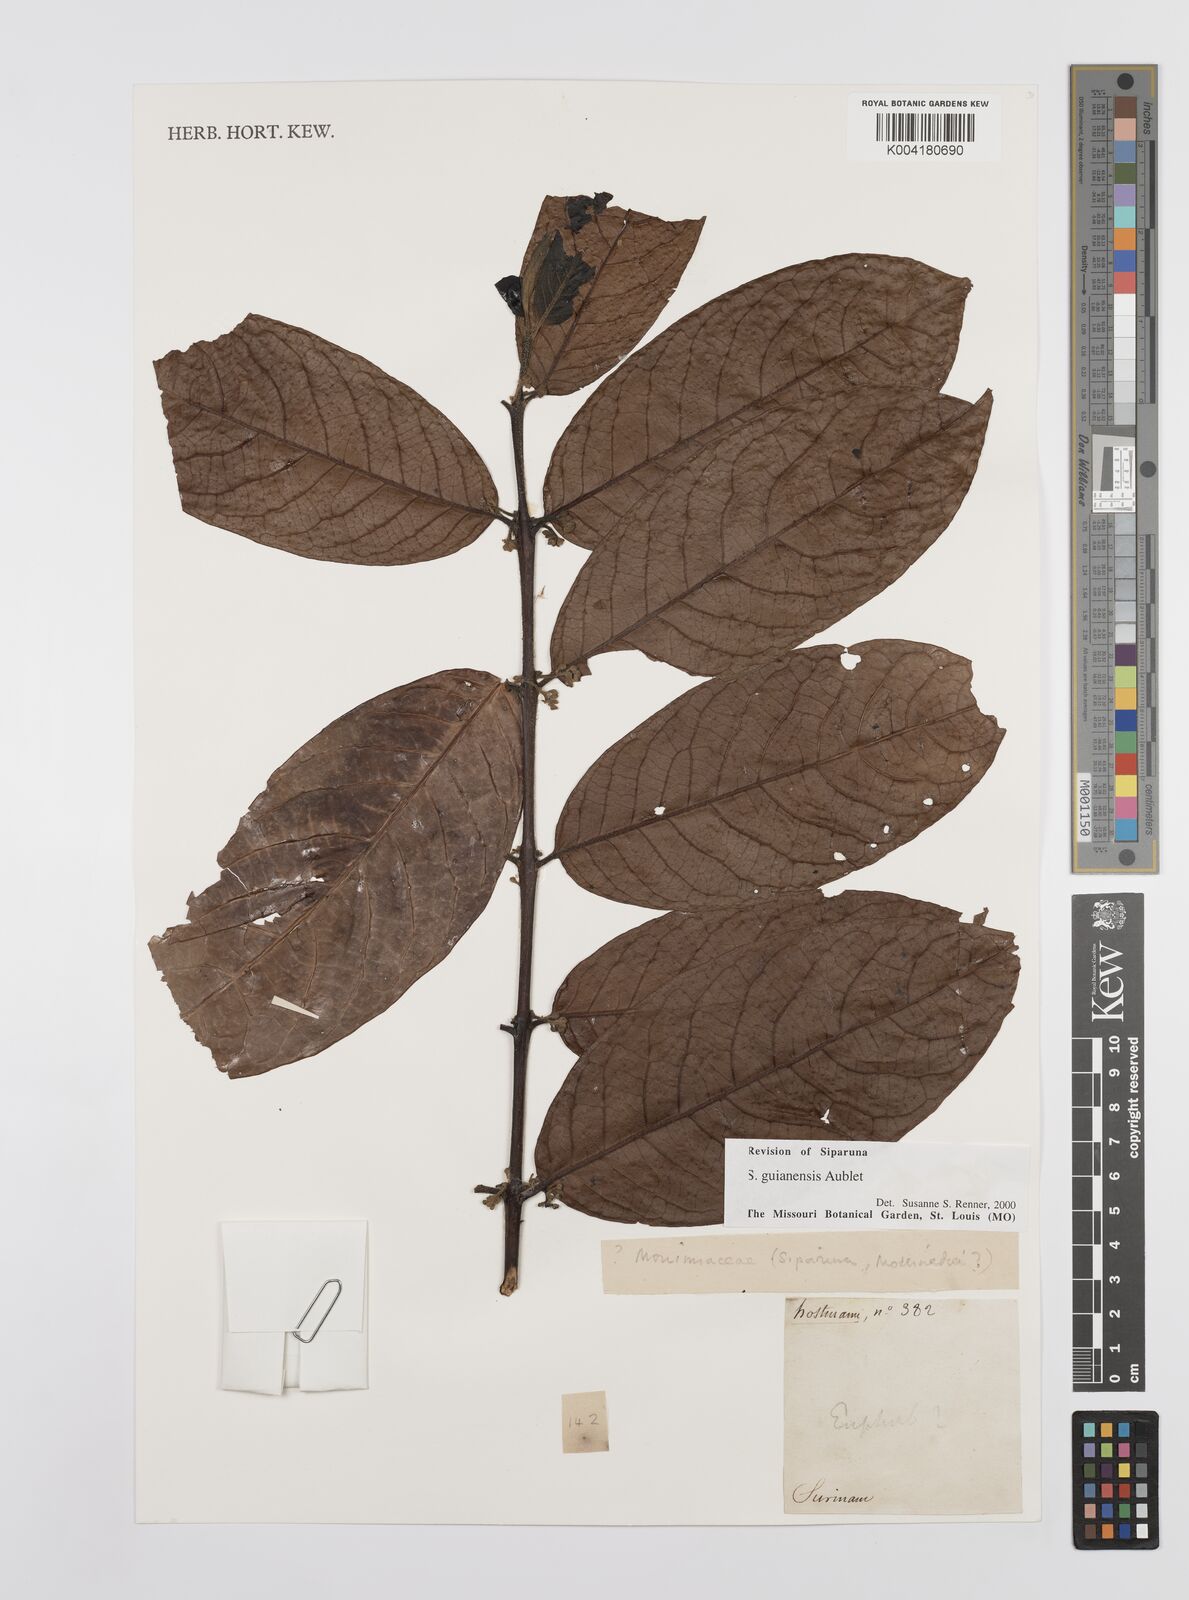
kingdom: Plantae
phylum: Tracheophyta
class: Magnoliopsida
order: Laurales
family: Siparunaceae
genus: Siparuna
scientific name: Siparuna guianensis
